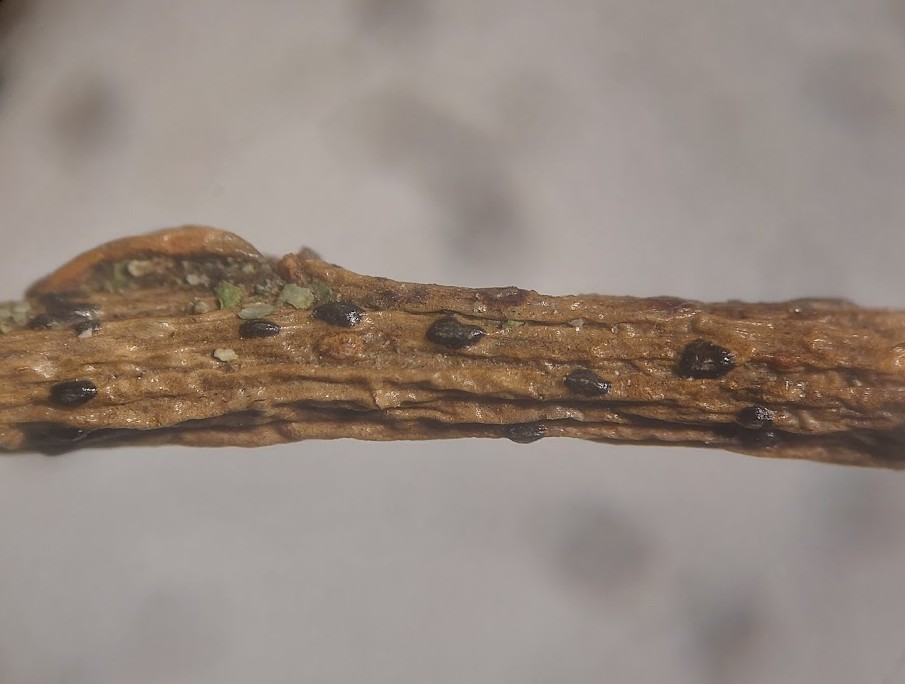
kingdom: Fungi
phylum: Ascomycota
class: Sordariomycetes
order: Diaporthales
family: Gnomoniaceae
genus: Plagiostoma
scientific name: Plagiostoma salicellum
